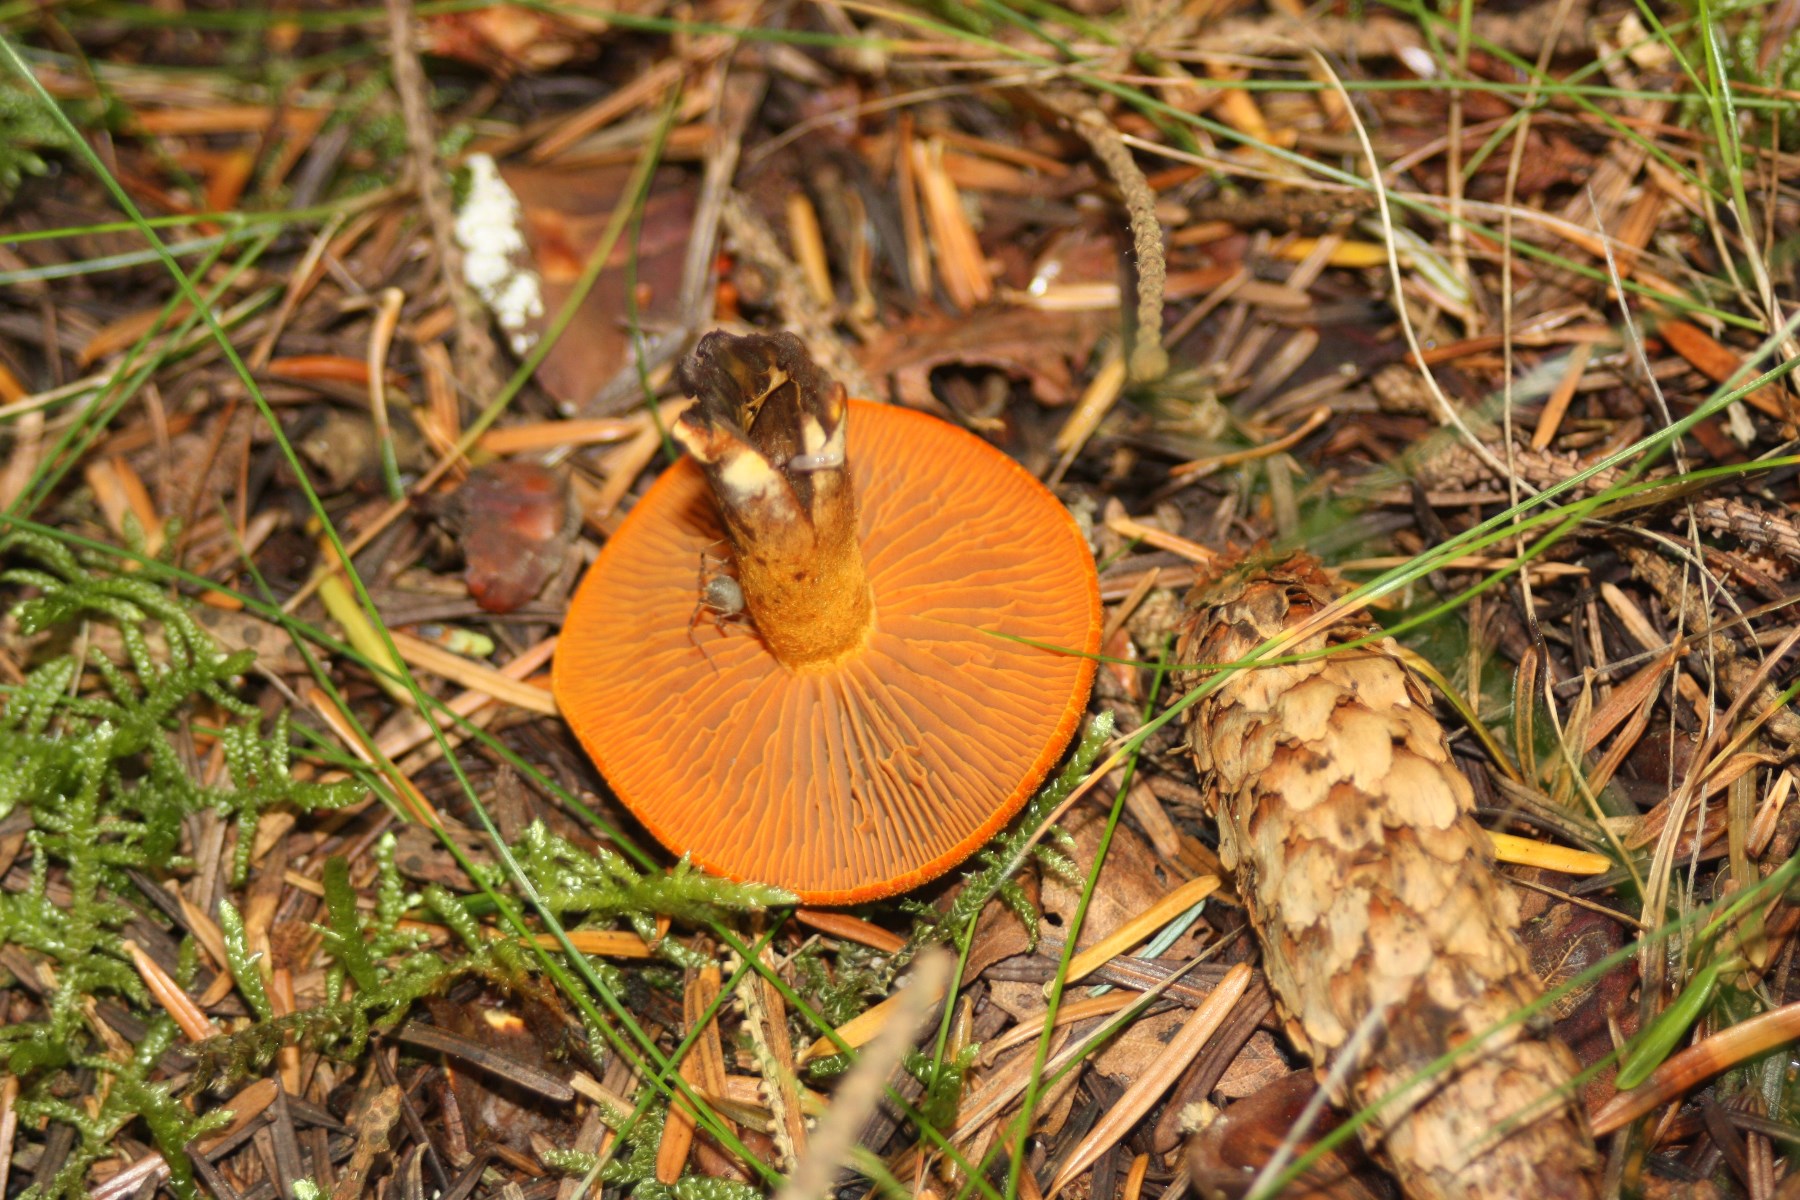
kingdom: Fungi
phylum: Basidiomycota
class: Agaricomycetes
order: Agaricales
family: Cortinariaceae
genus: Cortinarius
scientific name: Cortinarius malicorius
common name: grønkødet slørhat
